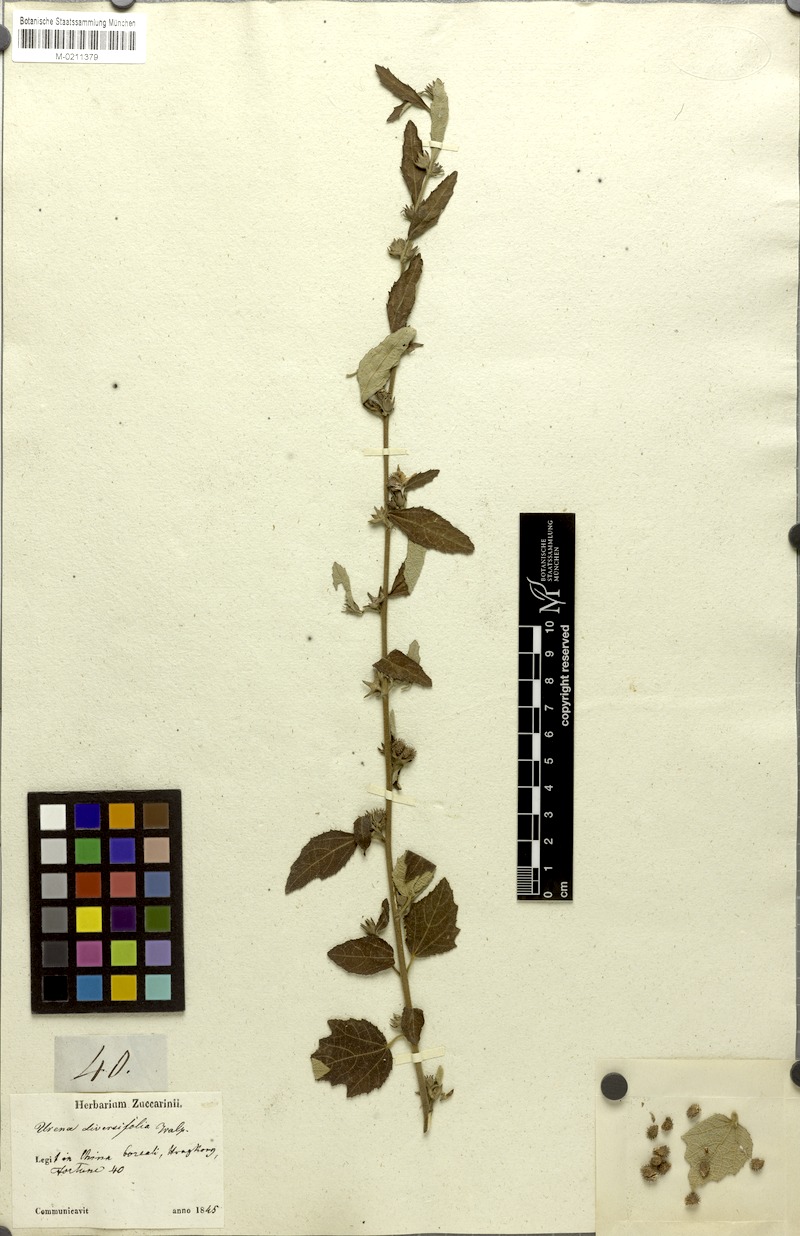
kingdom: Plantae
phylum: Tracheophyta
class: Magnoliopsida
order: Malvales
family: Malvaceae
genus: Urena
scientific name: Urena lobata
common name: Caesarweed
